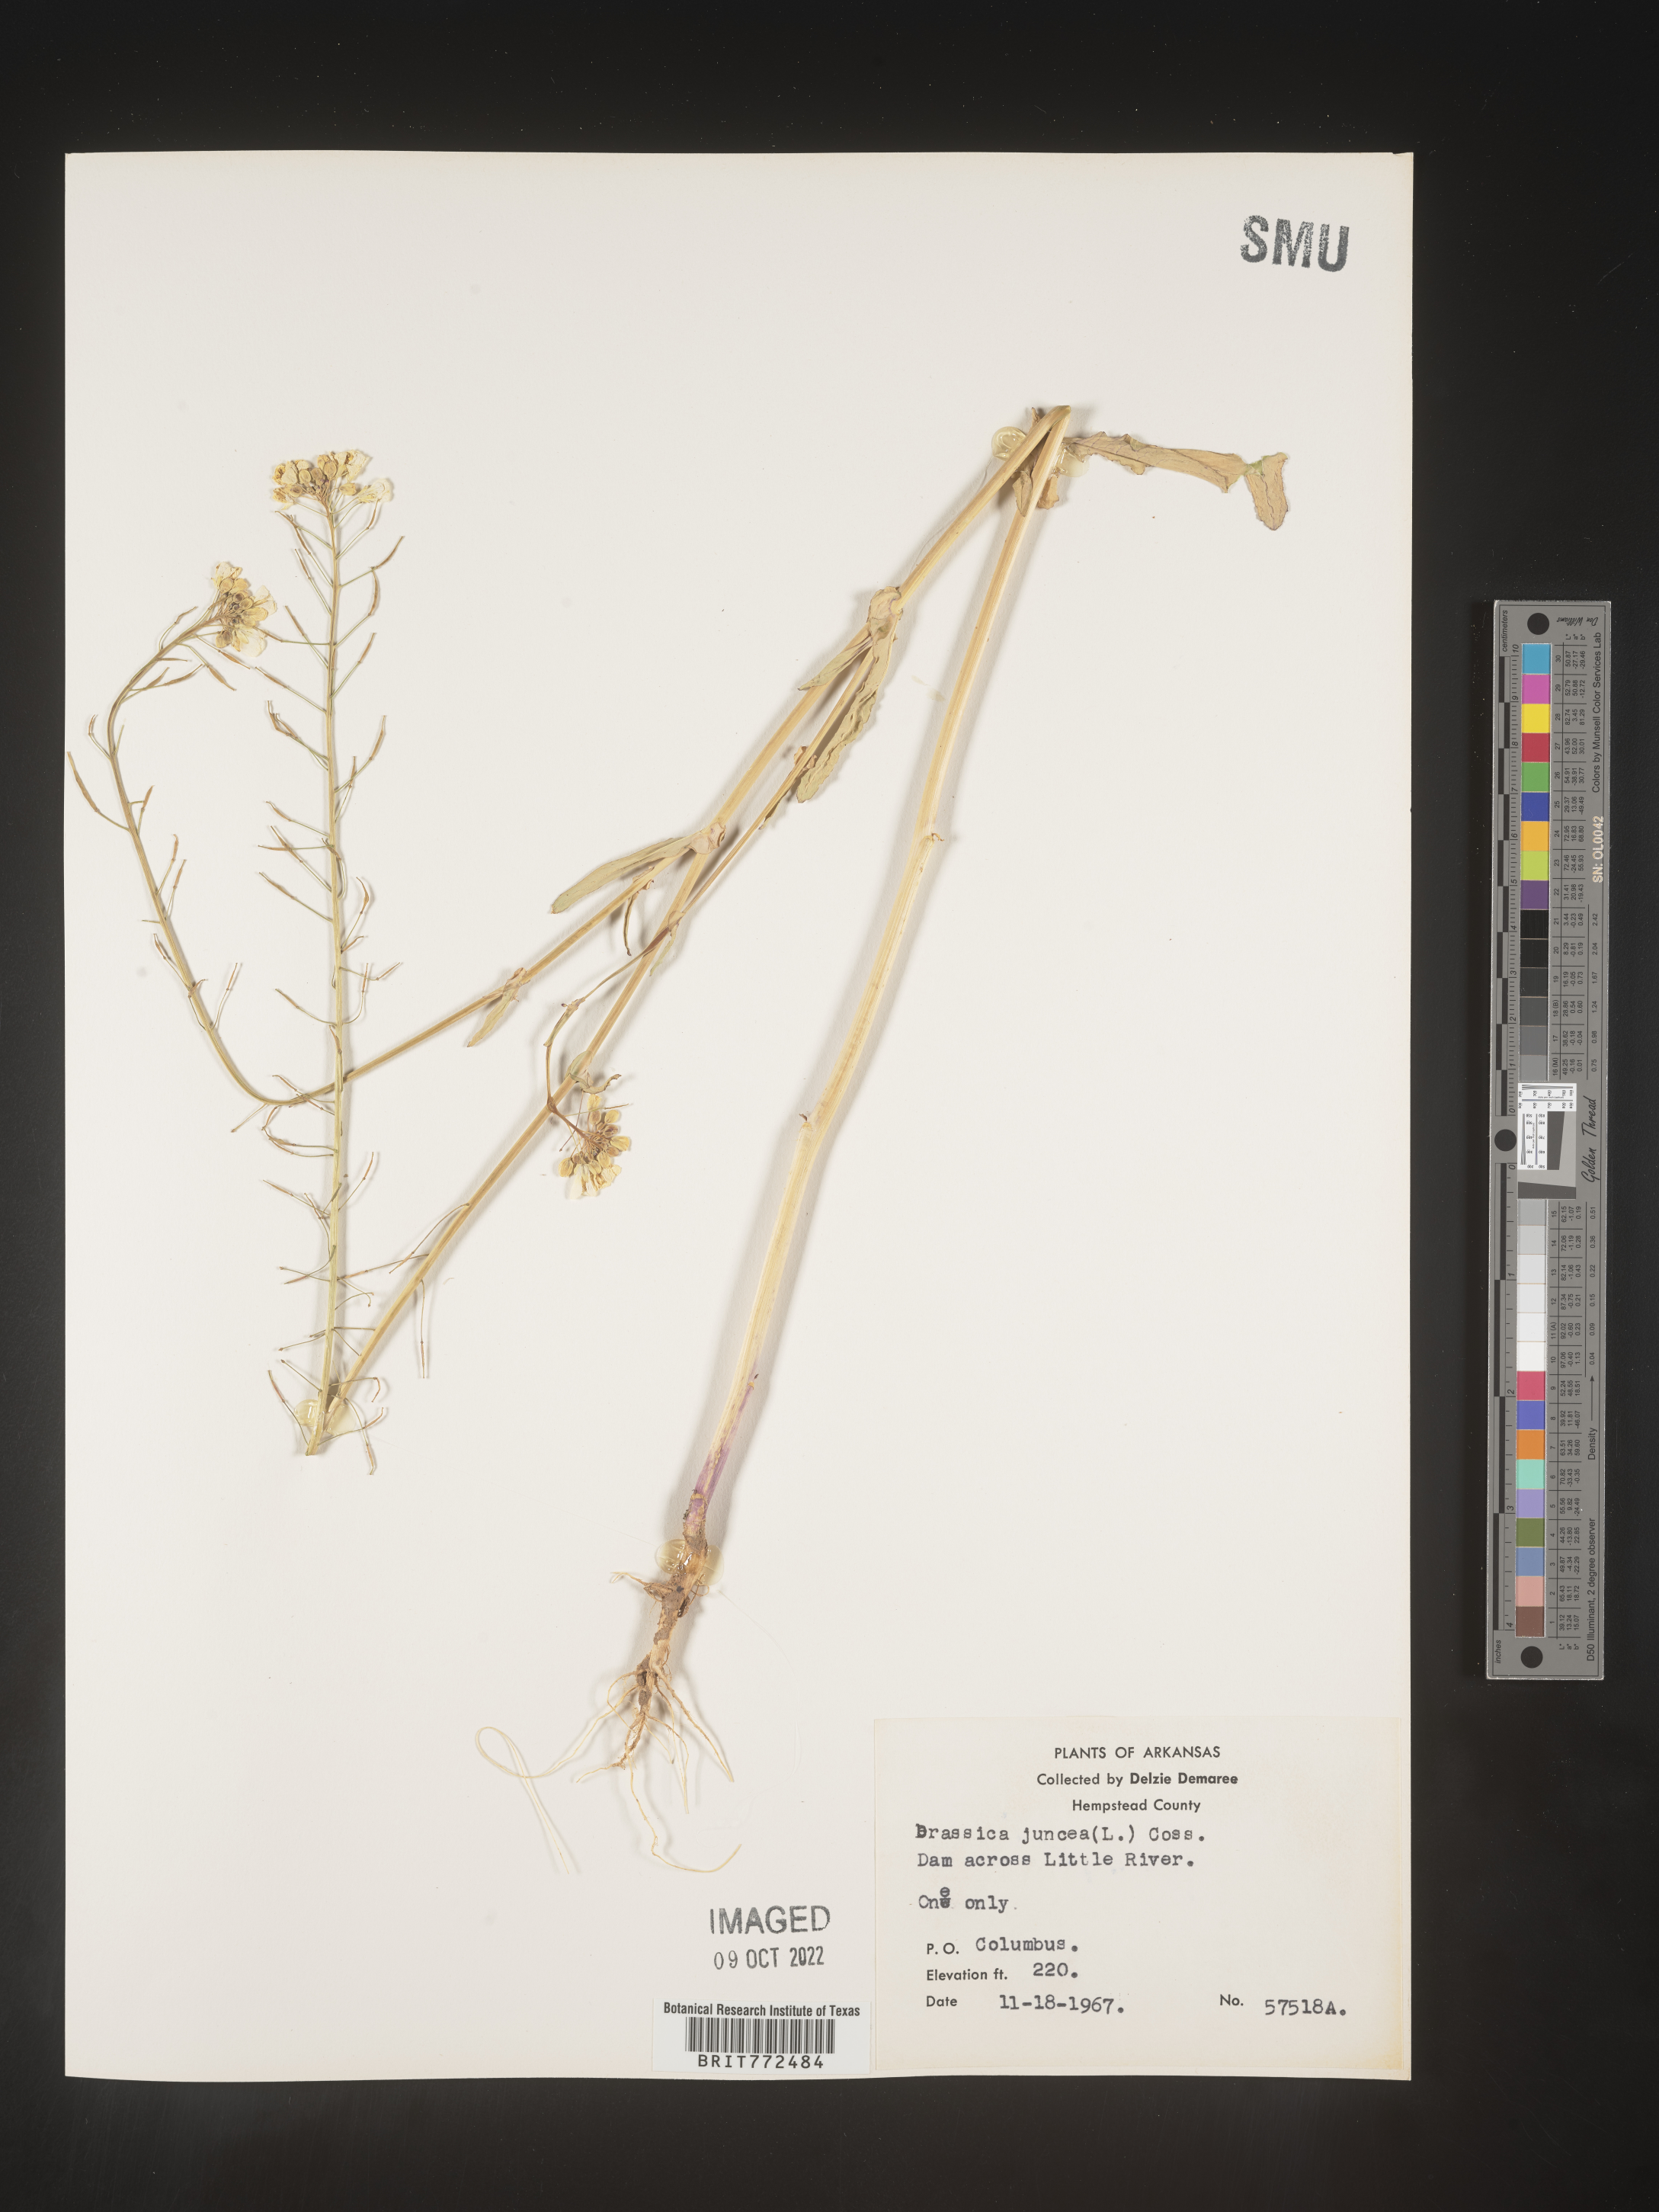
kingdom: Plantae
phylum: Tracheophyta
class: Magnoliopsida
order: Brassicales
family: Brassicaceae
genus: Brassica
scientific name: Brassica
